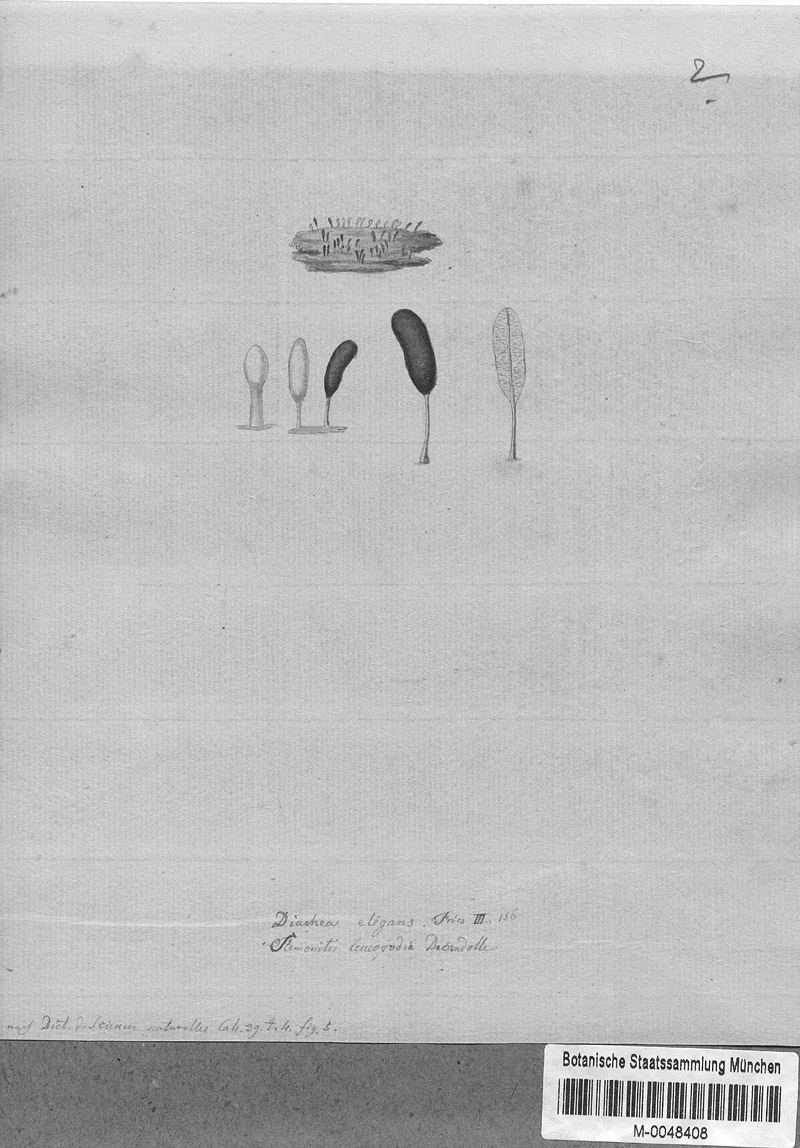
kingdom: Protozoa
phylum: Mycetozoa
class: Myxomycetes
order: Physarales
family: Didymiaceae
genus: Diachea
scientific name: Diachea leucopodia
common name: White-footed slime
